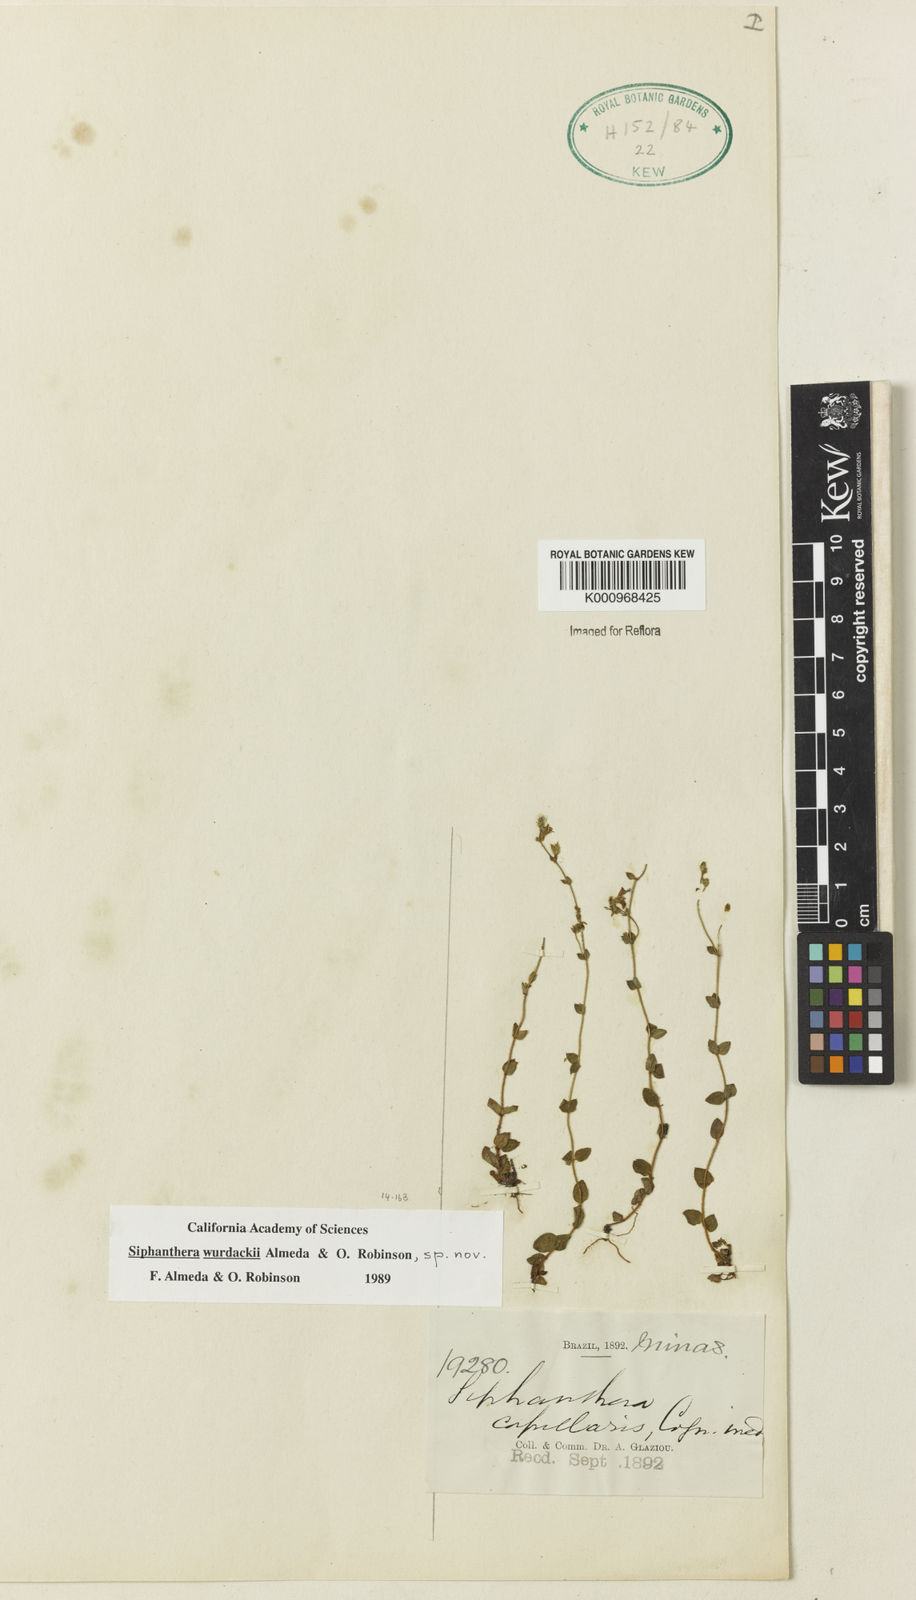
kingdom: Plantae
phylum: Tracheophyta
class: Magnoliopsida
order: Myrtales
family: Melastomataceae
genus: Siphanthera
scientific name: Siphanthera wurdackii
